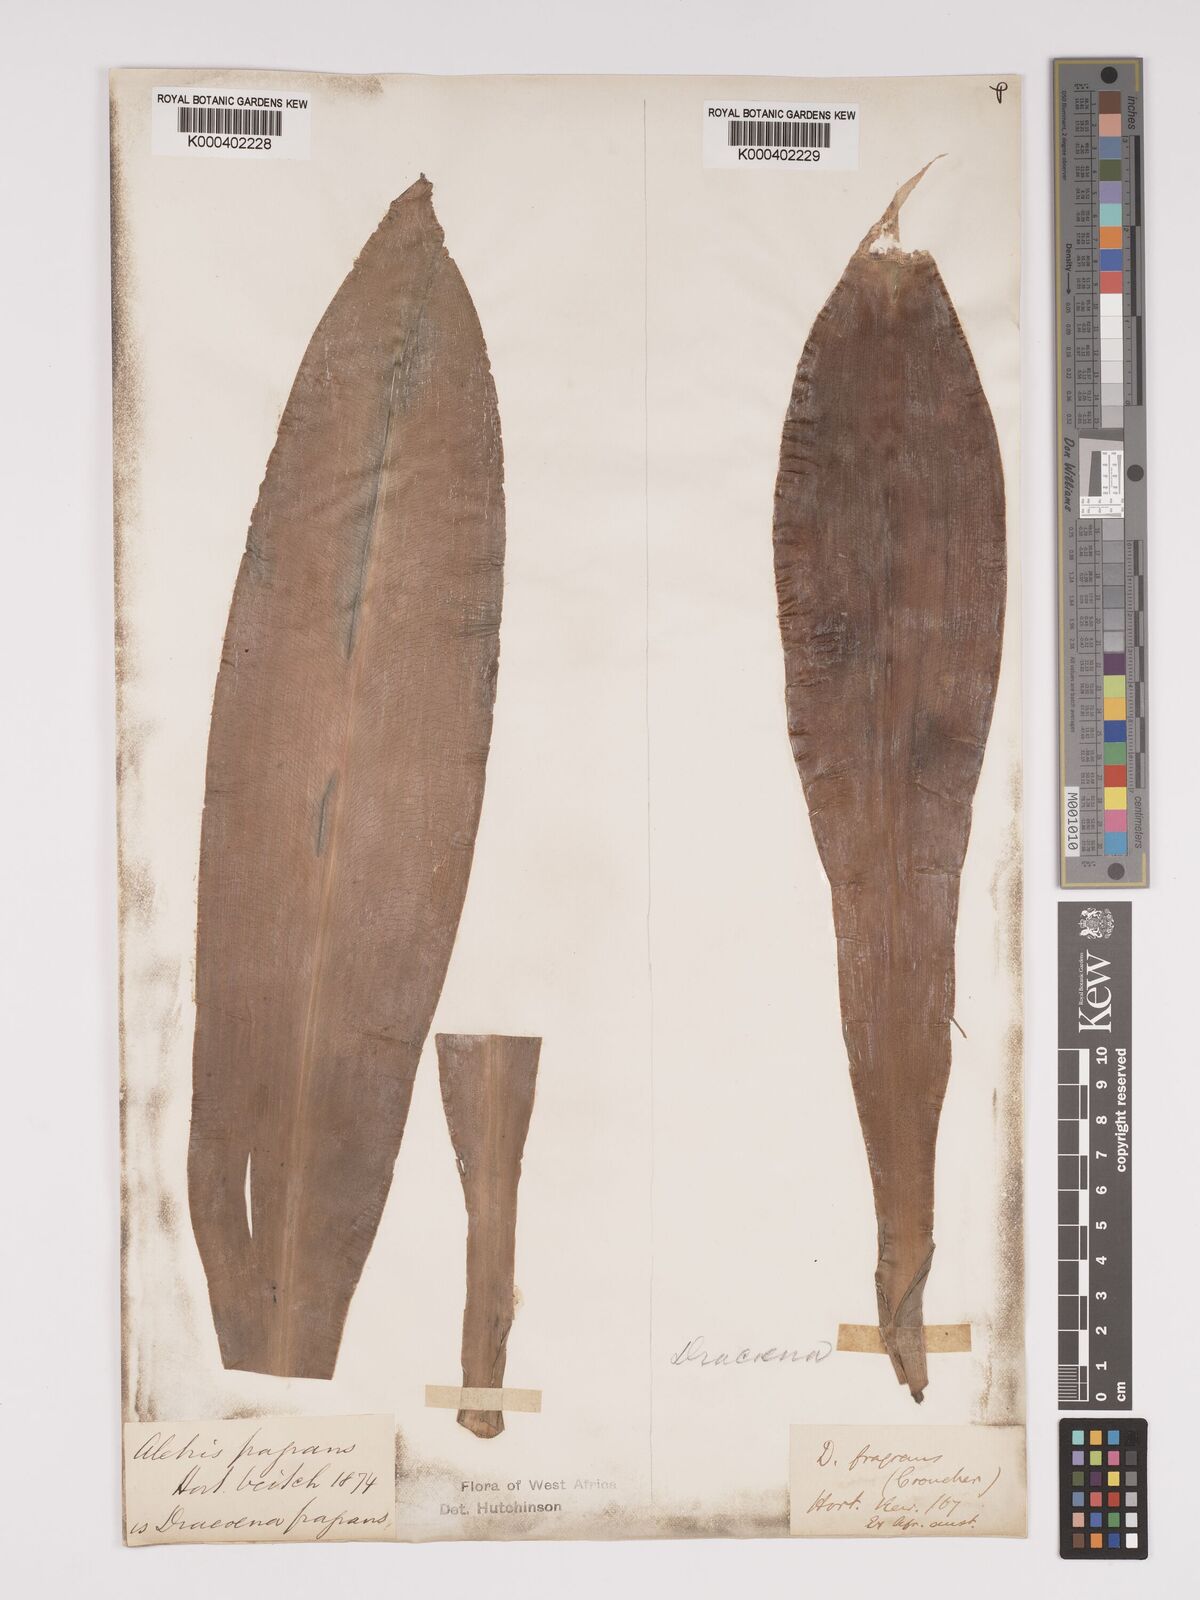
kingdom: Plantae
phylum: Tracheophyta
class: Liliopsida
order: Asparagales
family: Asparagaceae
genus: Dracaena
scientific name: Dracaena fragrans
